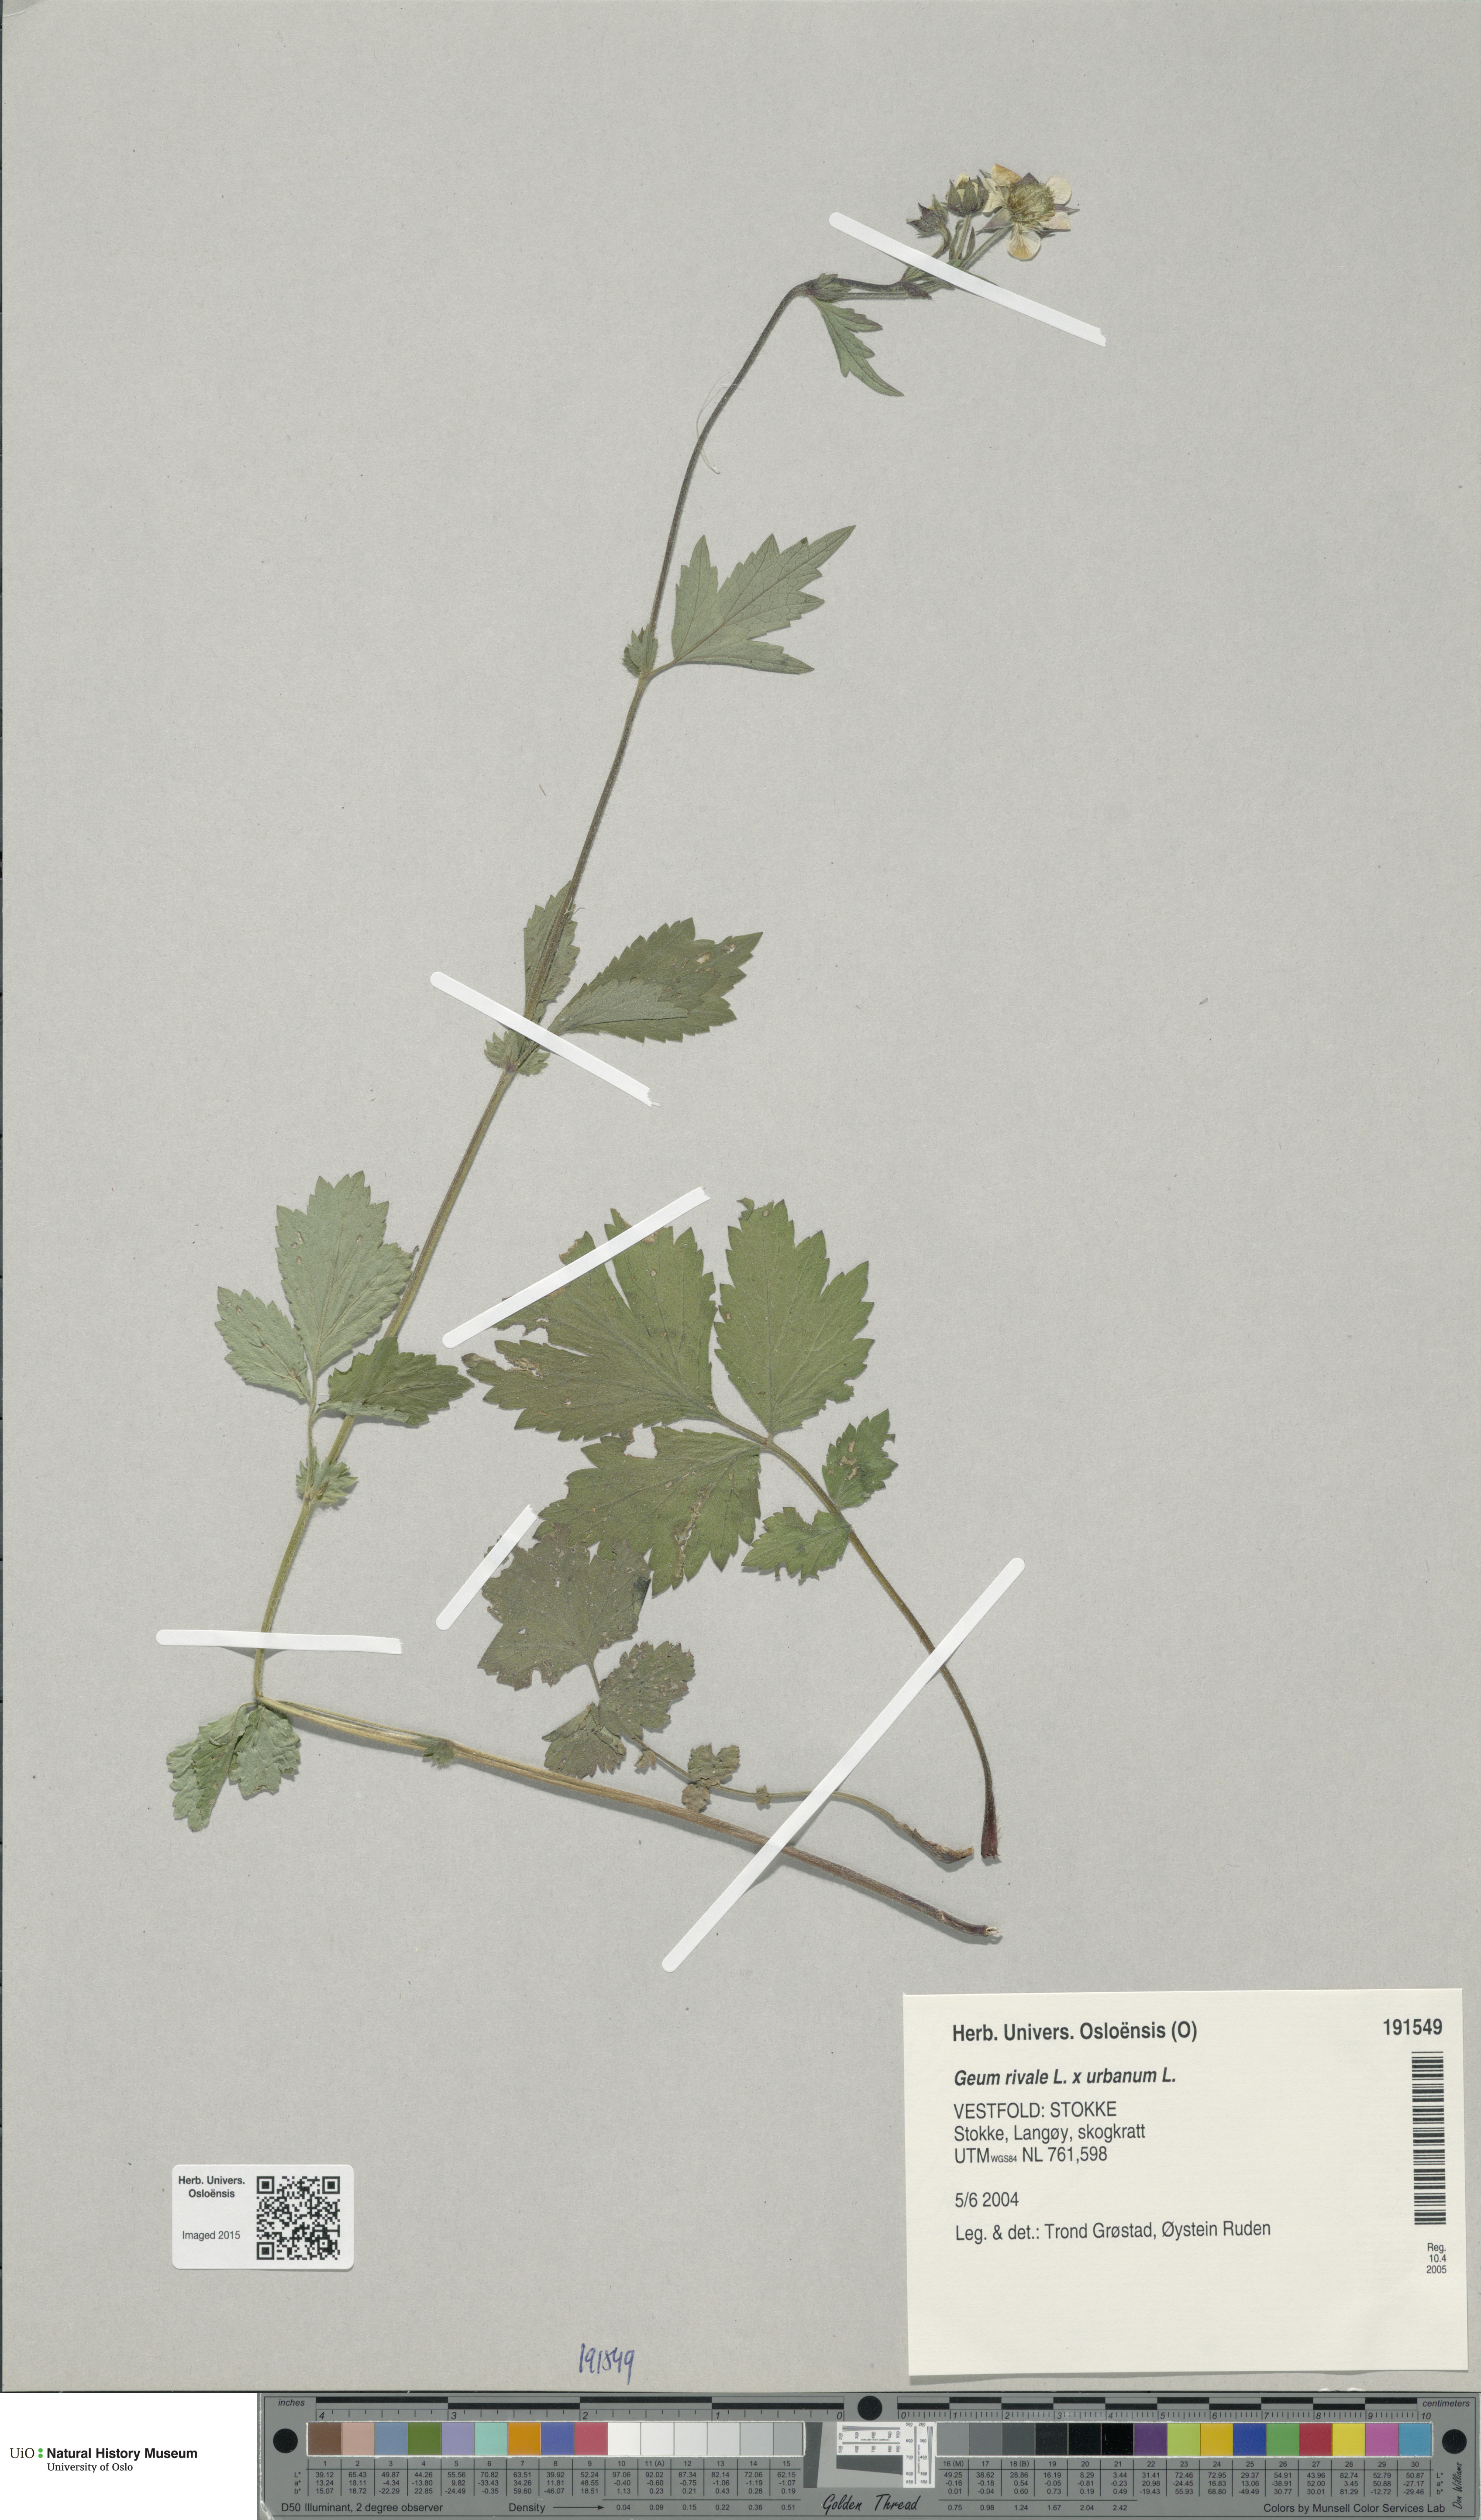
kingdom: Plantae
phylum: Tracheophyta
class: Magnoliopsida
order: Rosales
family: Rosaceae
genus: Geum
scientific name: Geum
